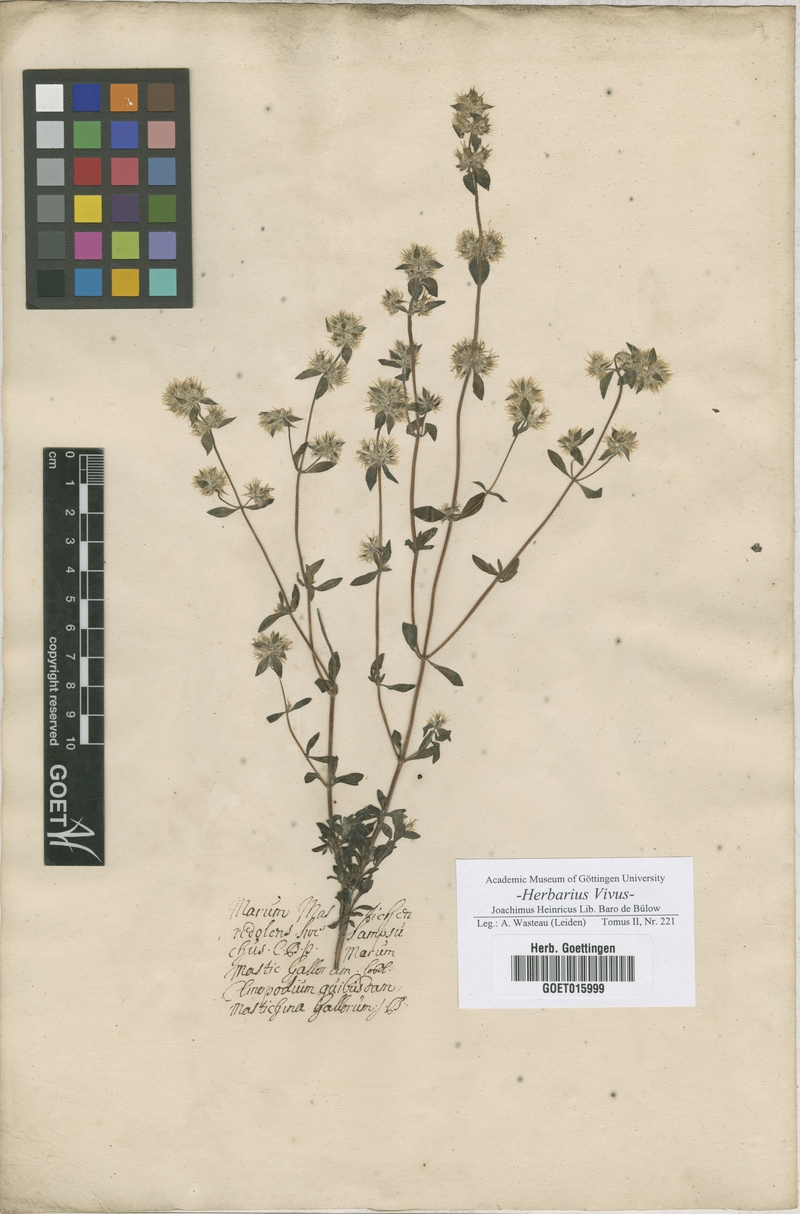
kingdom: Plantae
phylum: Tracheophyta
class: Magnoliopsida
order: Lamiales
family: Lamiaceae
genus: Origanum
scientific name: Origanum
